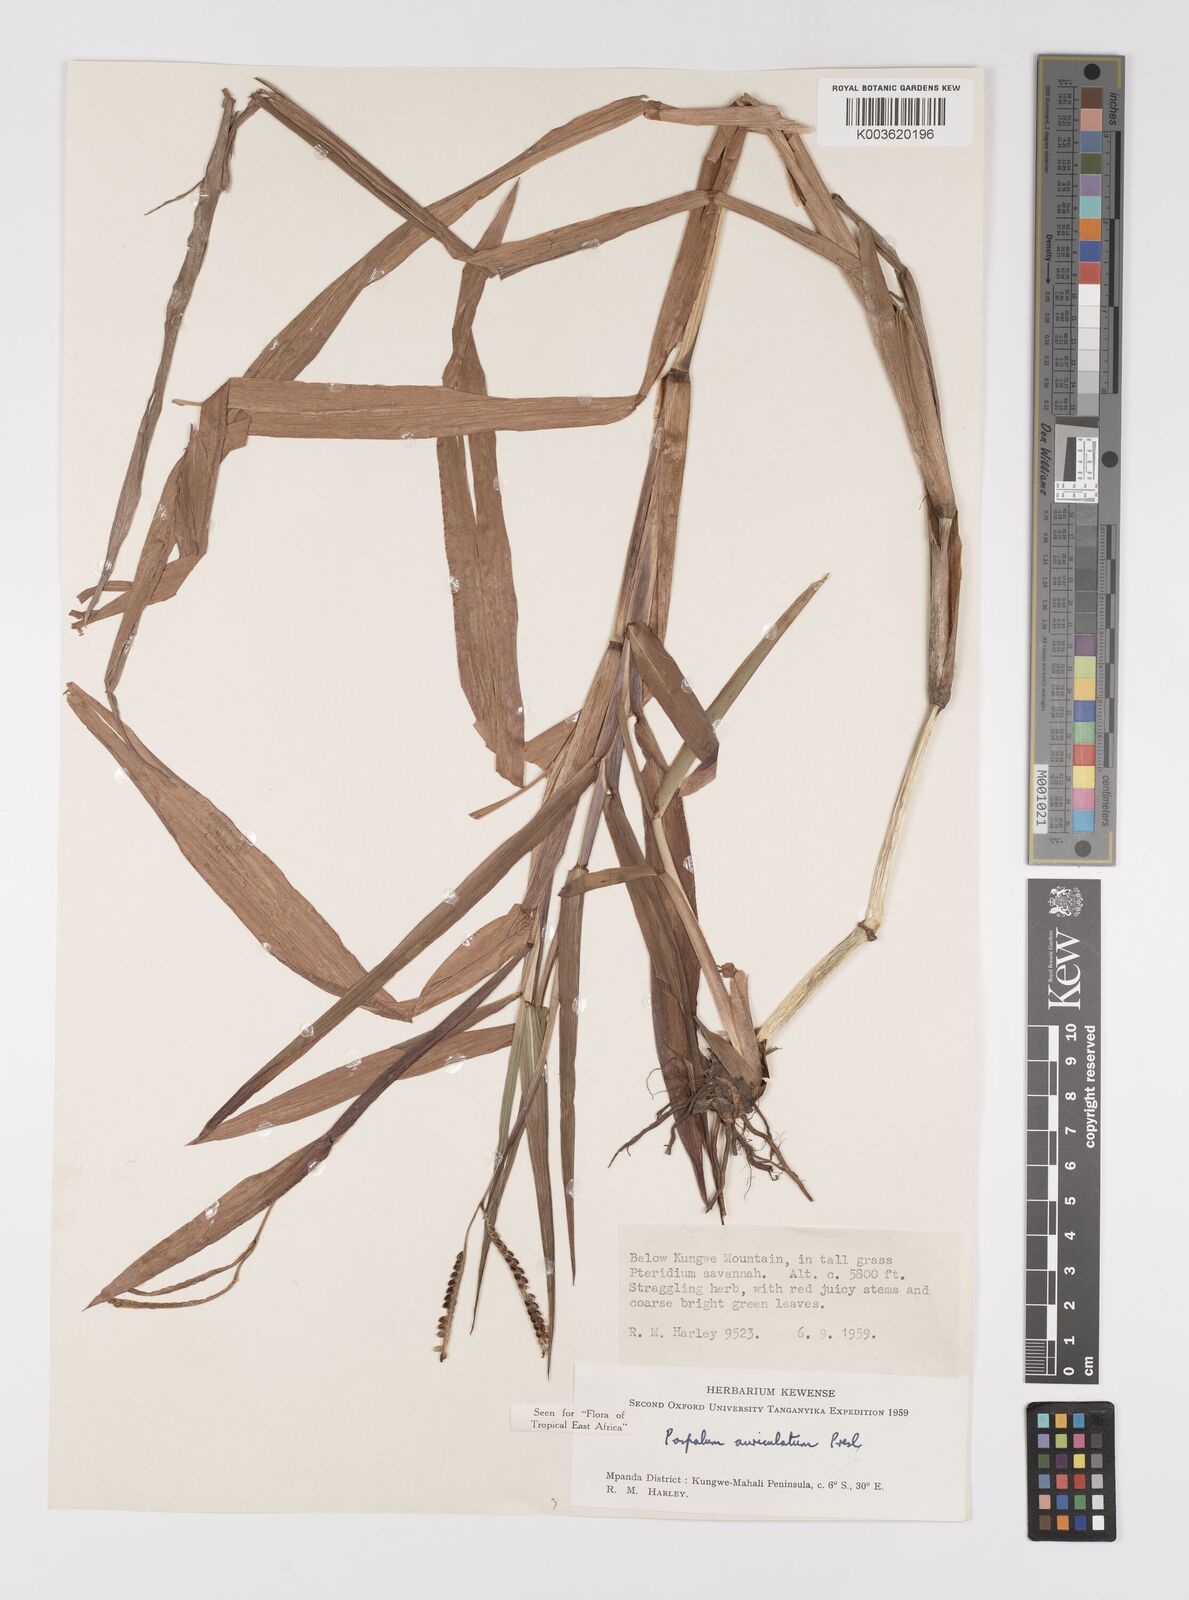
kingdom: Plantae
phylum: Tracheophyta
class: Liliopsida
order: Poales
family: Poaceae
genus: Paspalum
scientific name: Paspalum lamprocaryon
